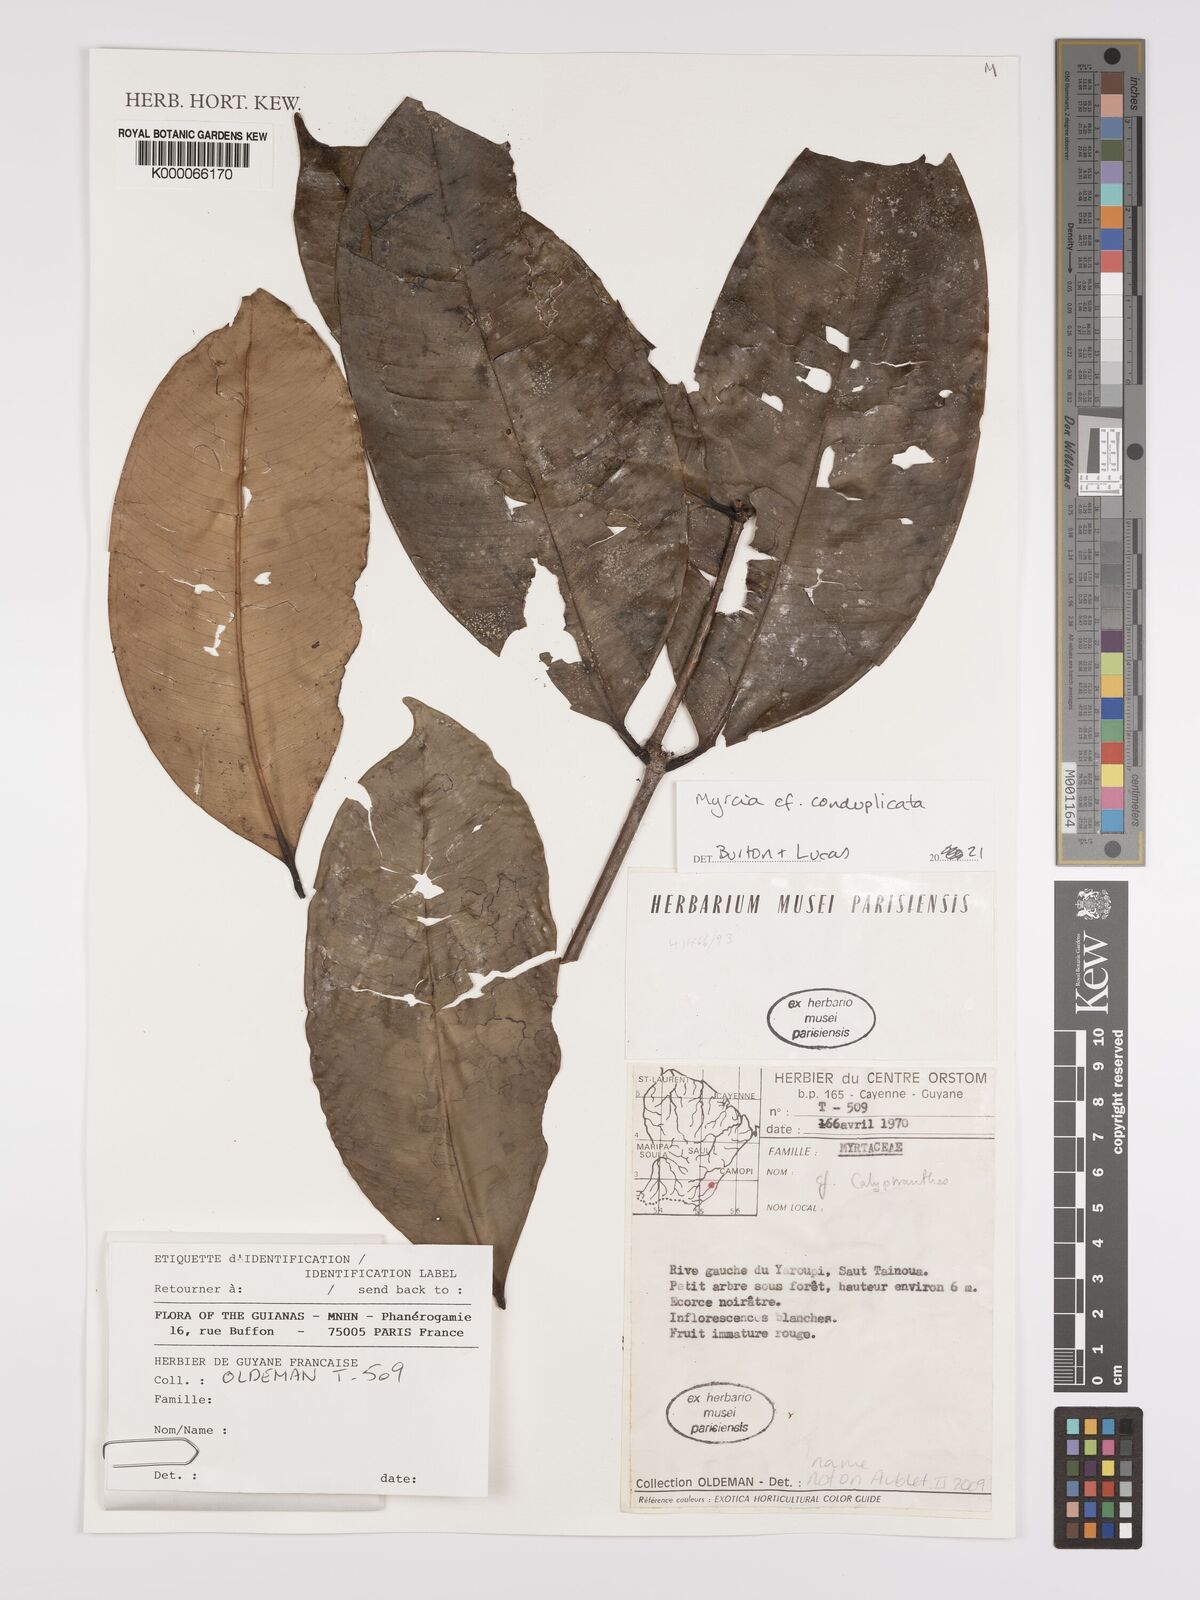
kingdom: Plantae
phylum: Tracheophyta
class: Magnoliopsida
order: Myrtales
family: Myrtaceae
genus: Myrcia
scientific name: Myrcia conduplicata
